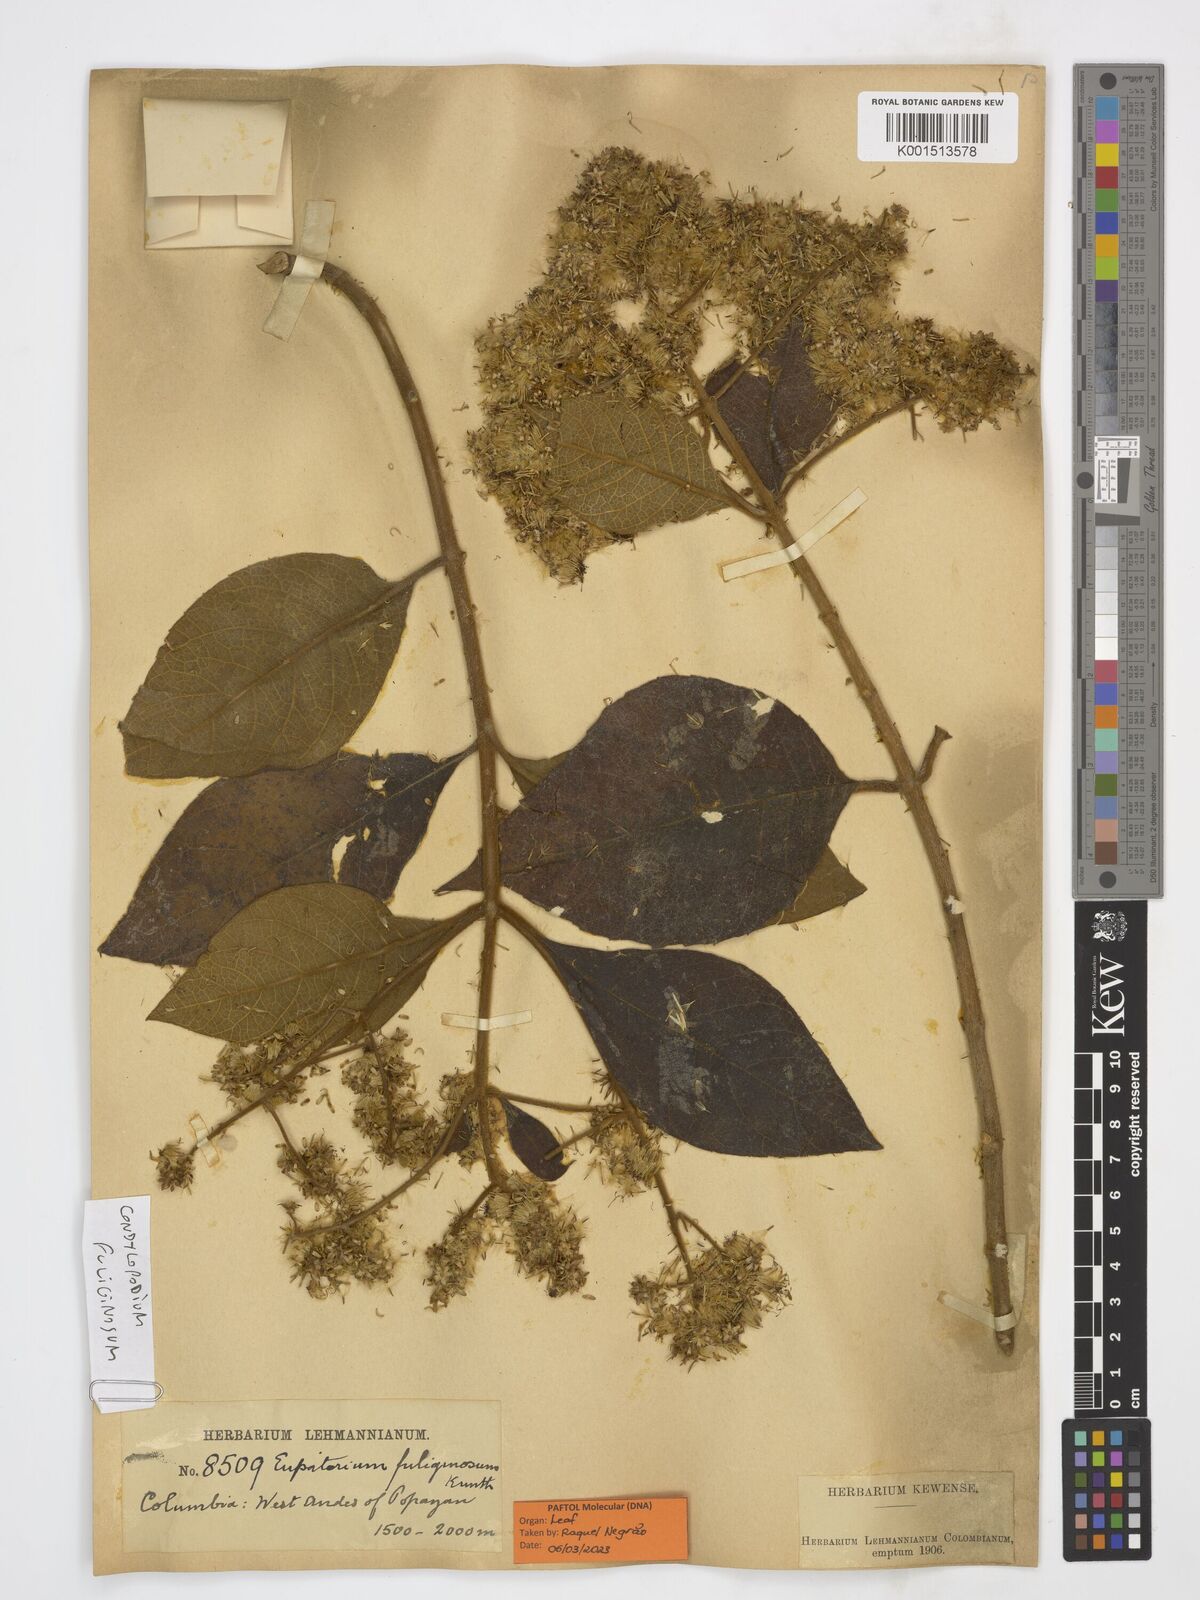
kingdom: Plantae
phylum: Tracheophyta
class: Magnoliopsida
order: Asterales
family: Asteraceae
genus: Condylopodium
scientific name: Condylopodium fuliginosum
